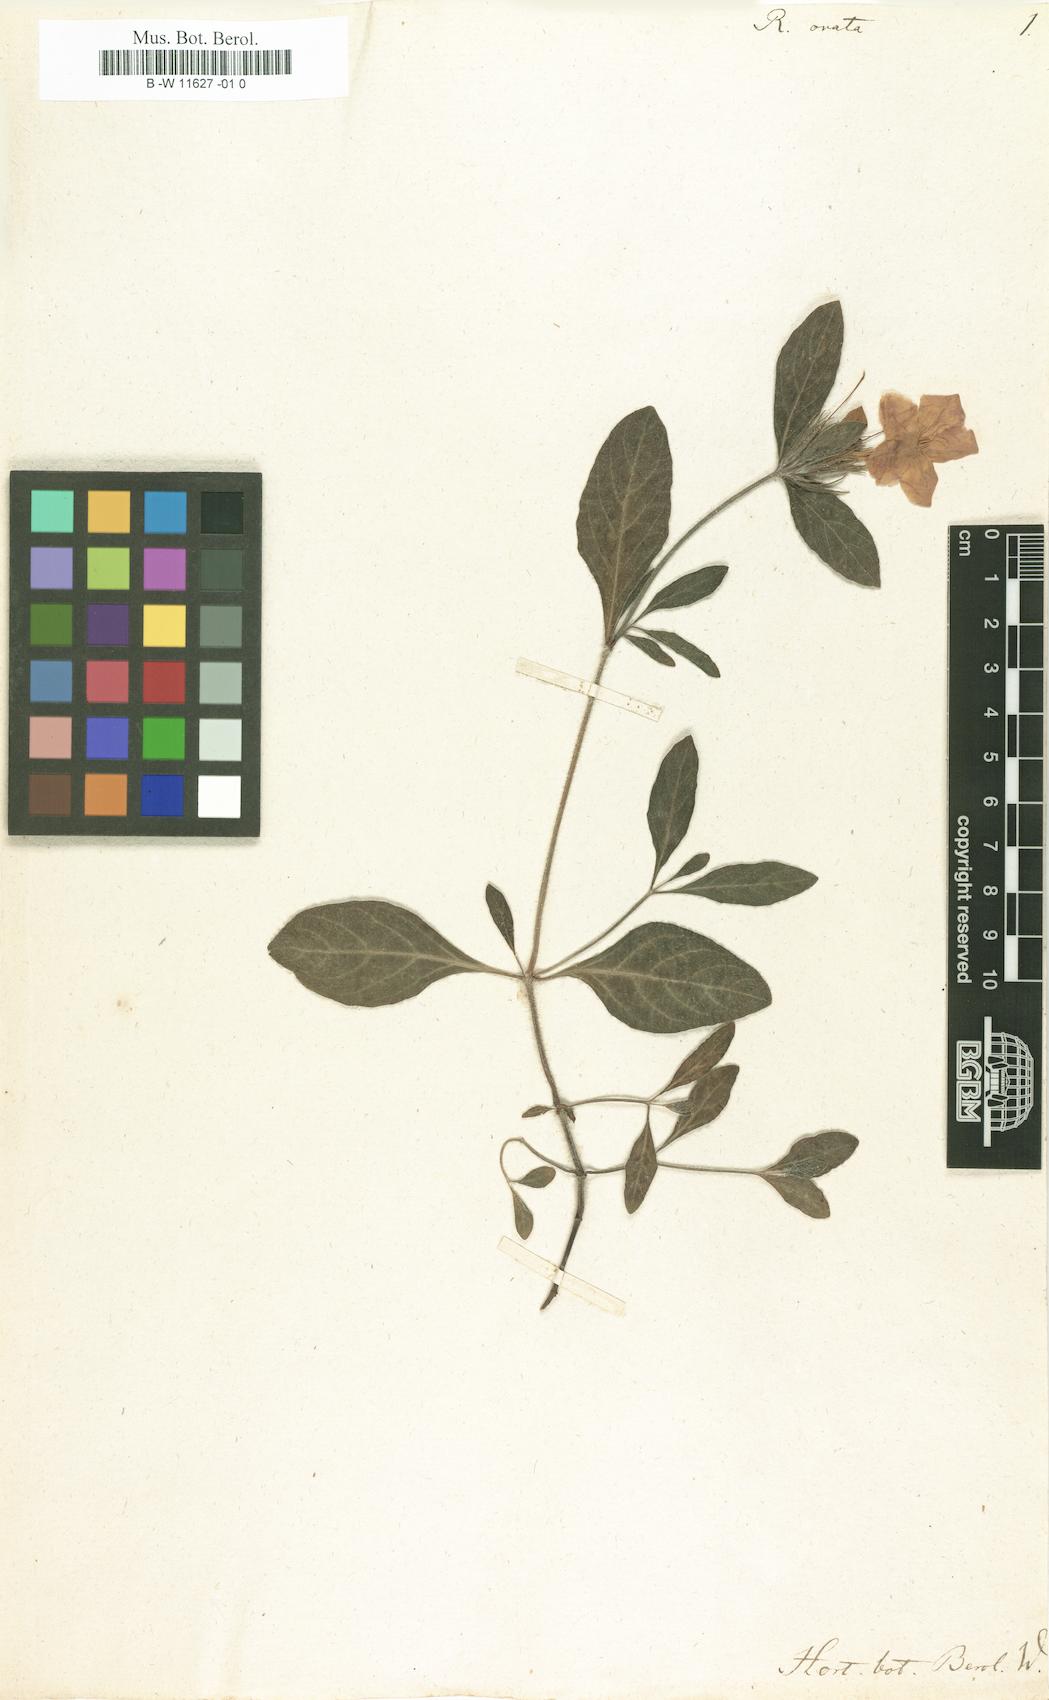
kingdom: Plantae
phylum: Tracheophyta
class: Magnoliopsida
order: Lamiales
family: Acanthaceae
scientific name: Acanthaceae
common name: Acanthaceae
